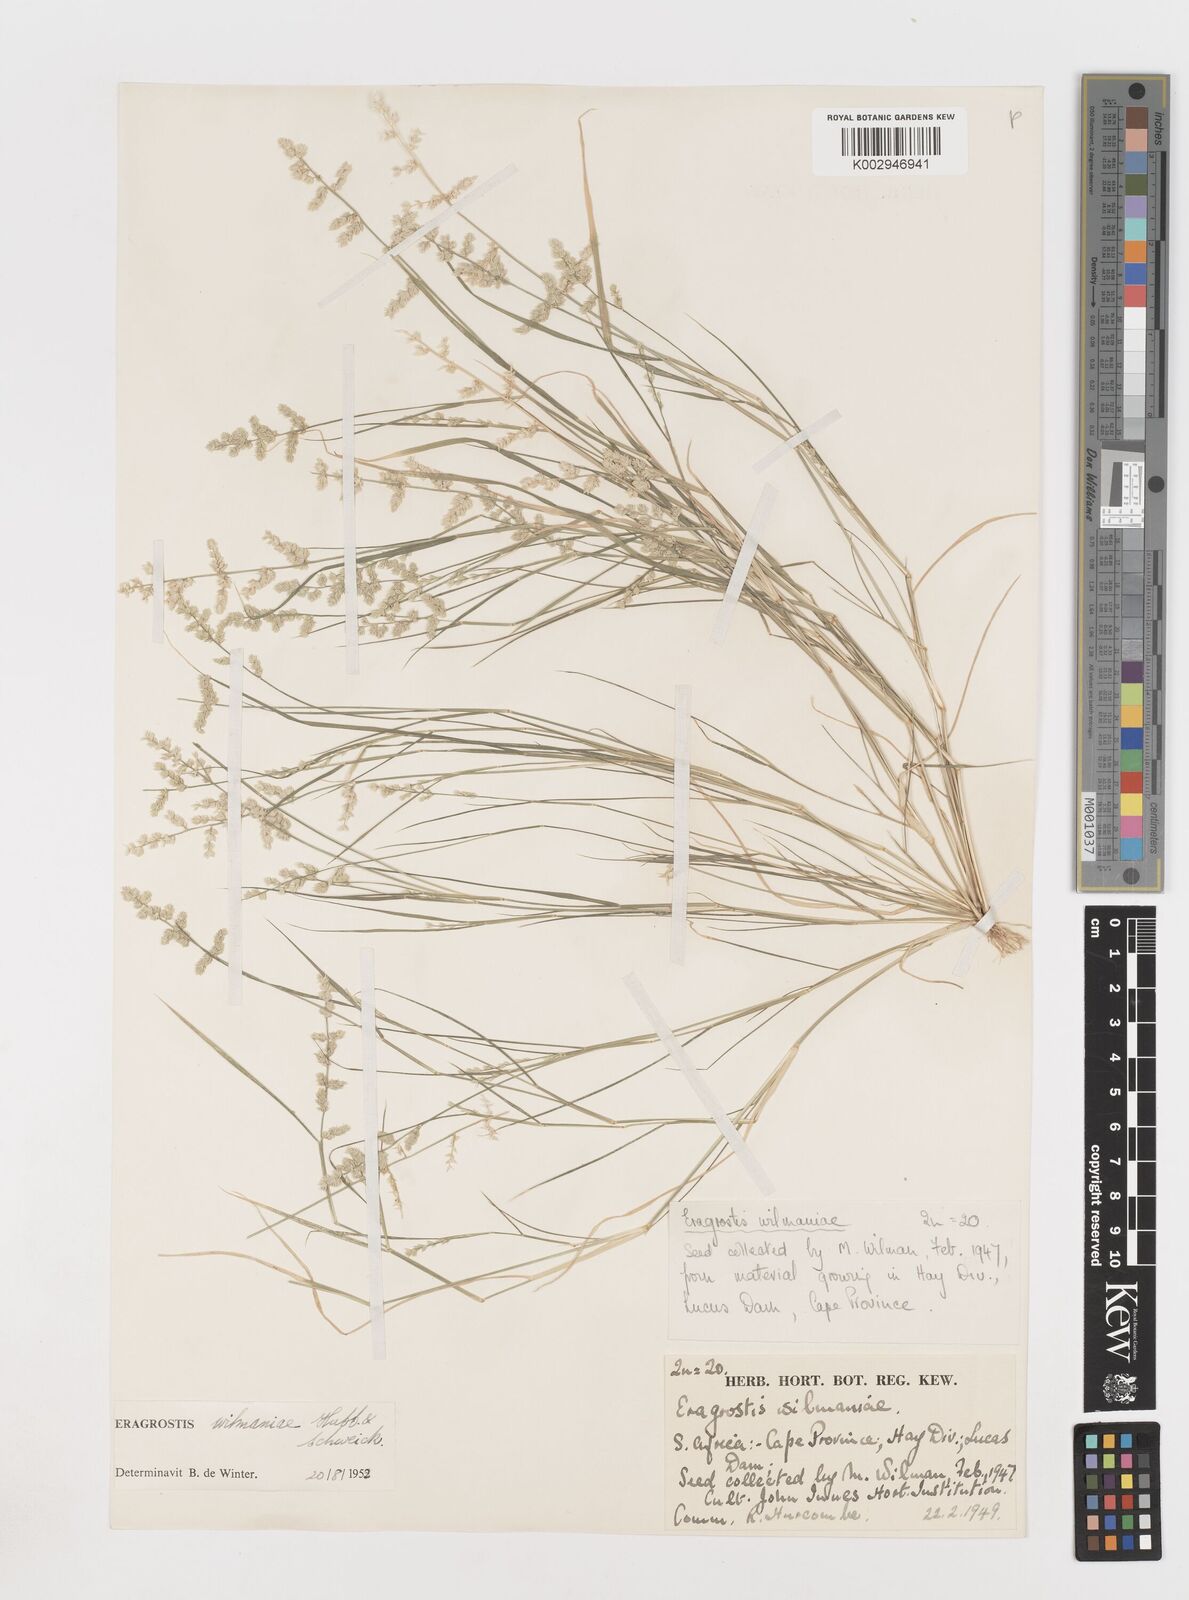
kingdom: Plantae
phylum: Tracheophyta
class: Liliopsida
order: Poales
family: Poaceae
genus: Eragrostis
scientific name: Eragrostis
